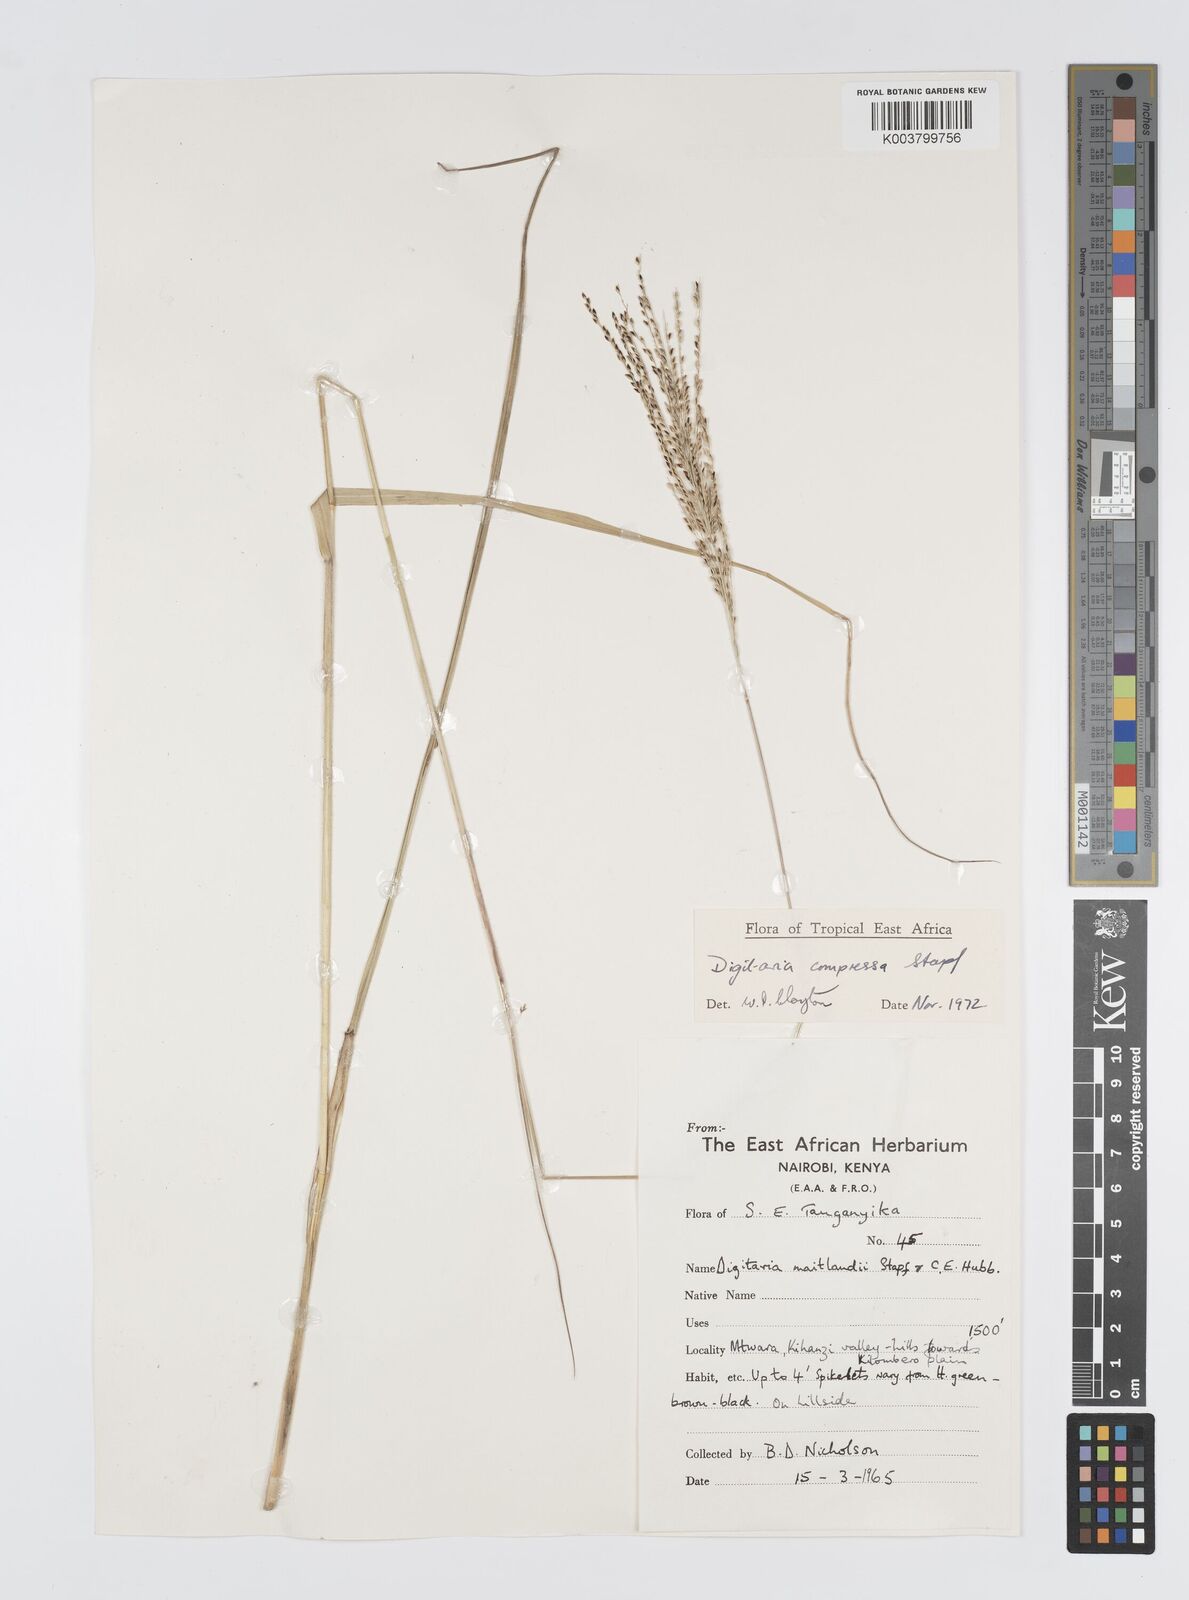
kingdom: Plantae
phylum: Tracheophyta
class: Liliopsida
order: Poales
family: Poaceae
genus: Digitaria
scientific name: Digitaria compressa
